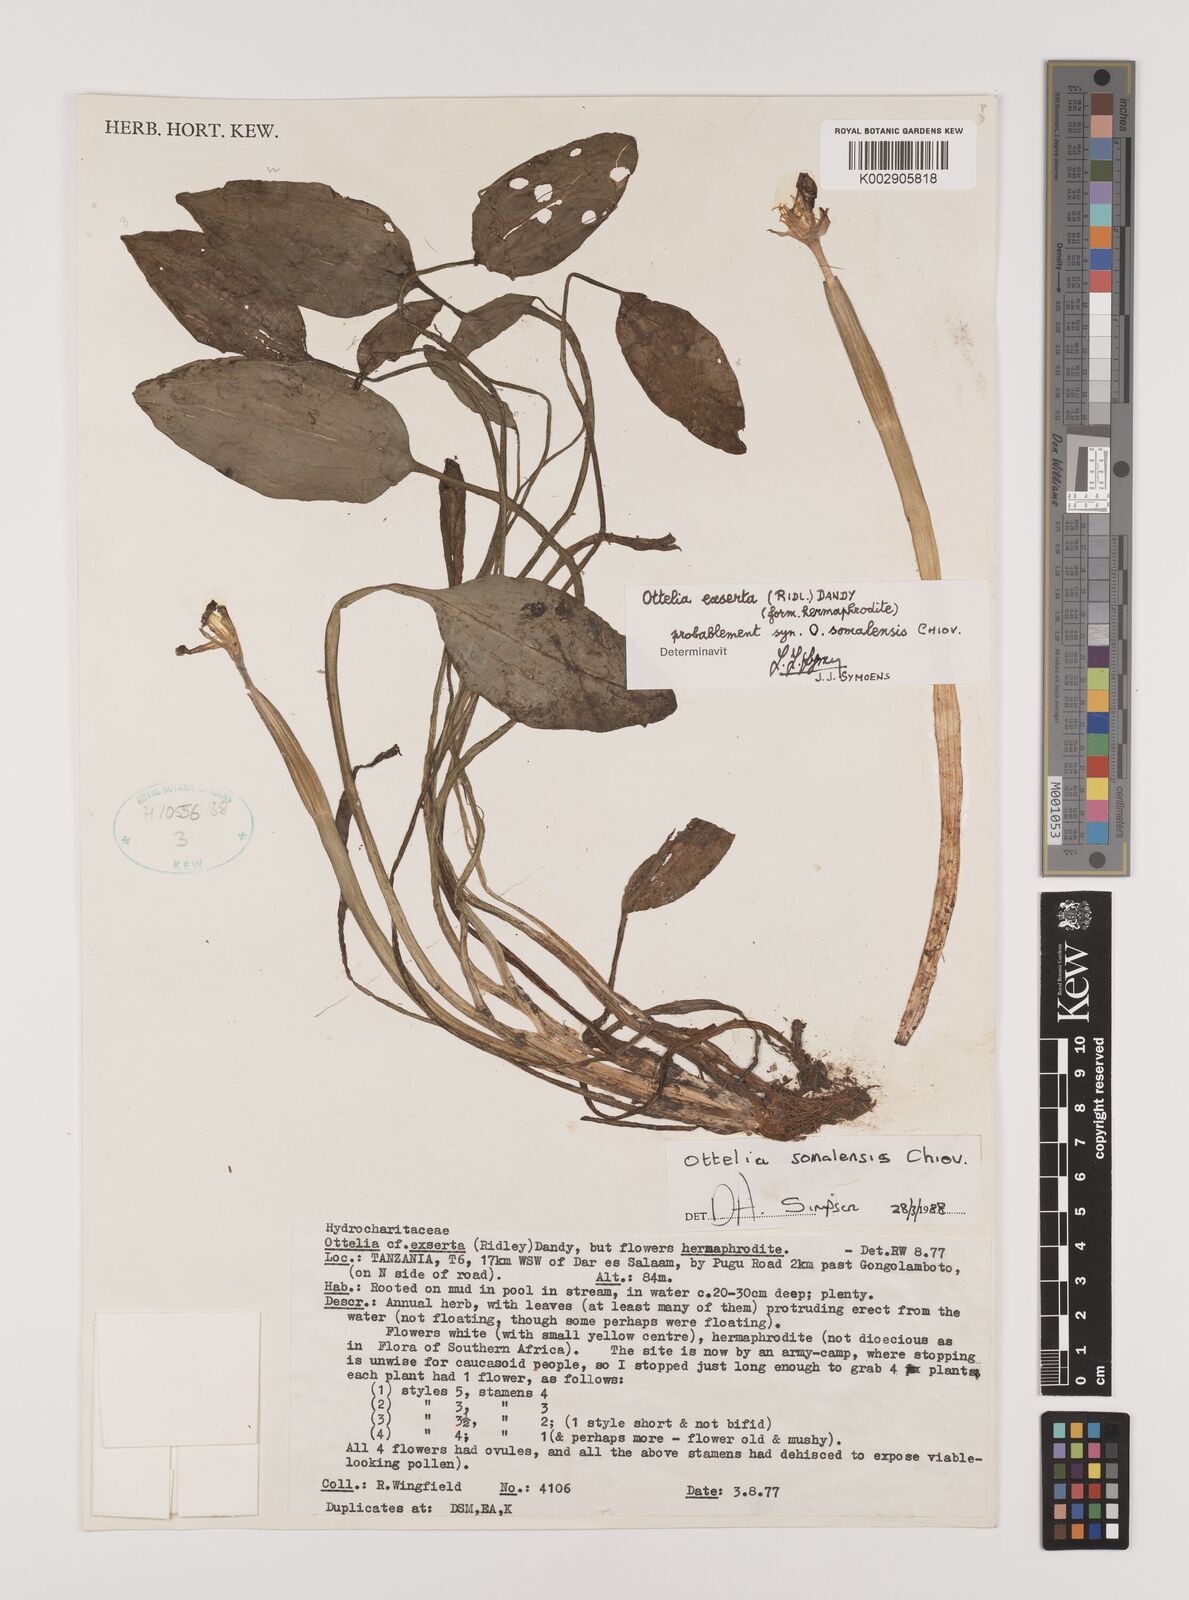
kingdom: Plantae
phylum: Tracheophyta
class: Liliopsida
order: Alismatales
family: Hydrocharitaceae
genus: Ottelia
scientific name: Ottelia exserta
